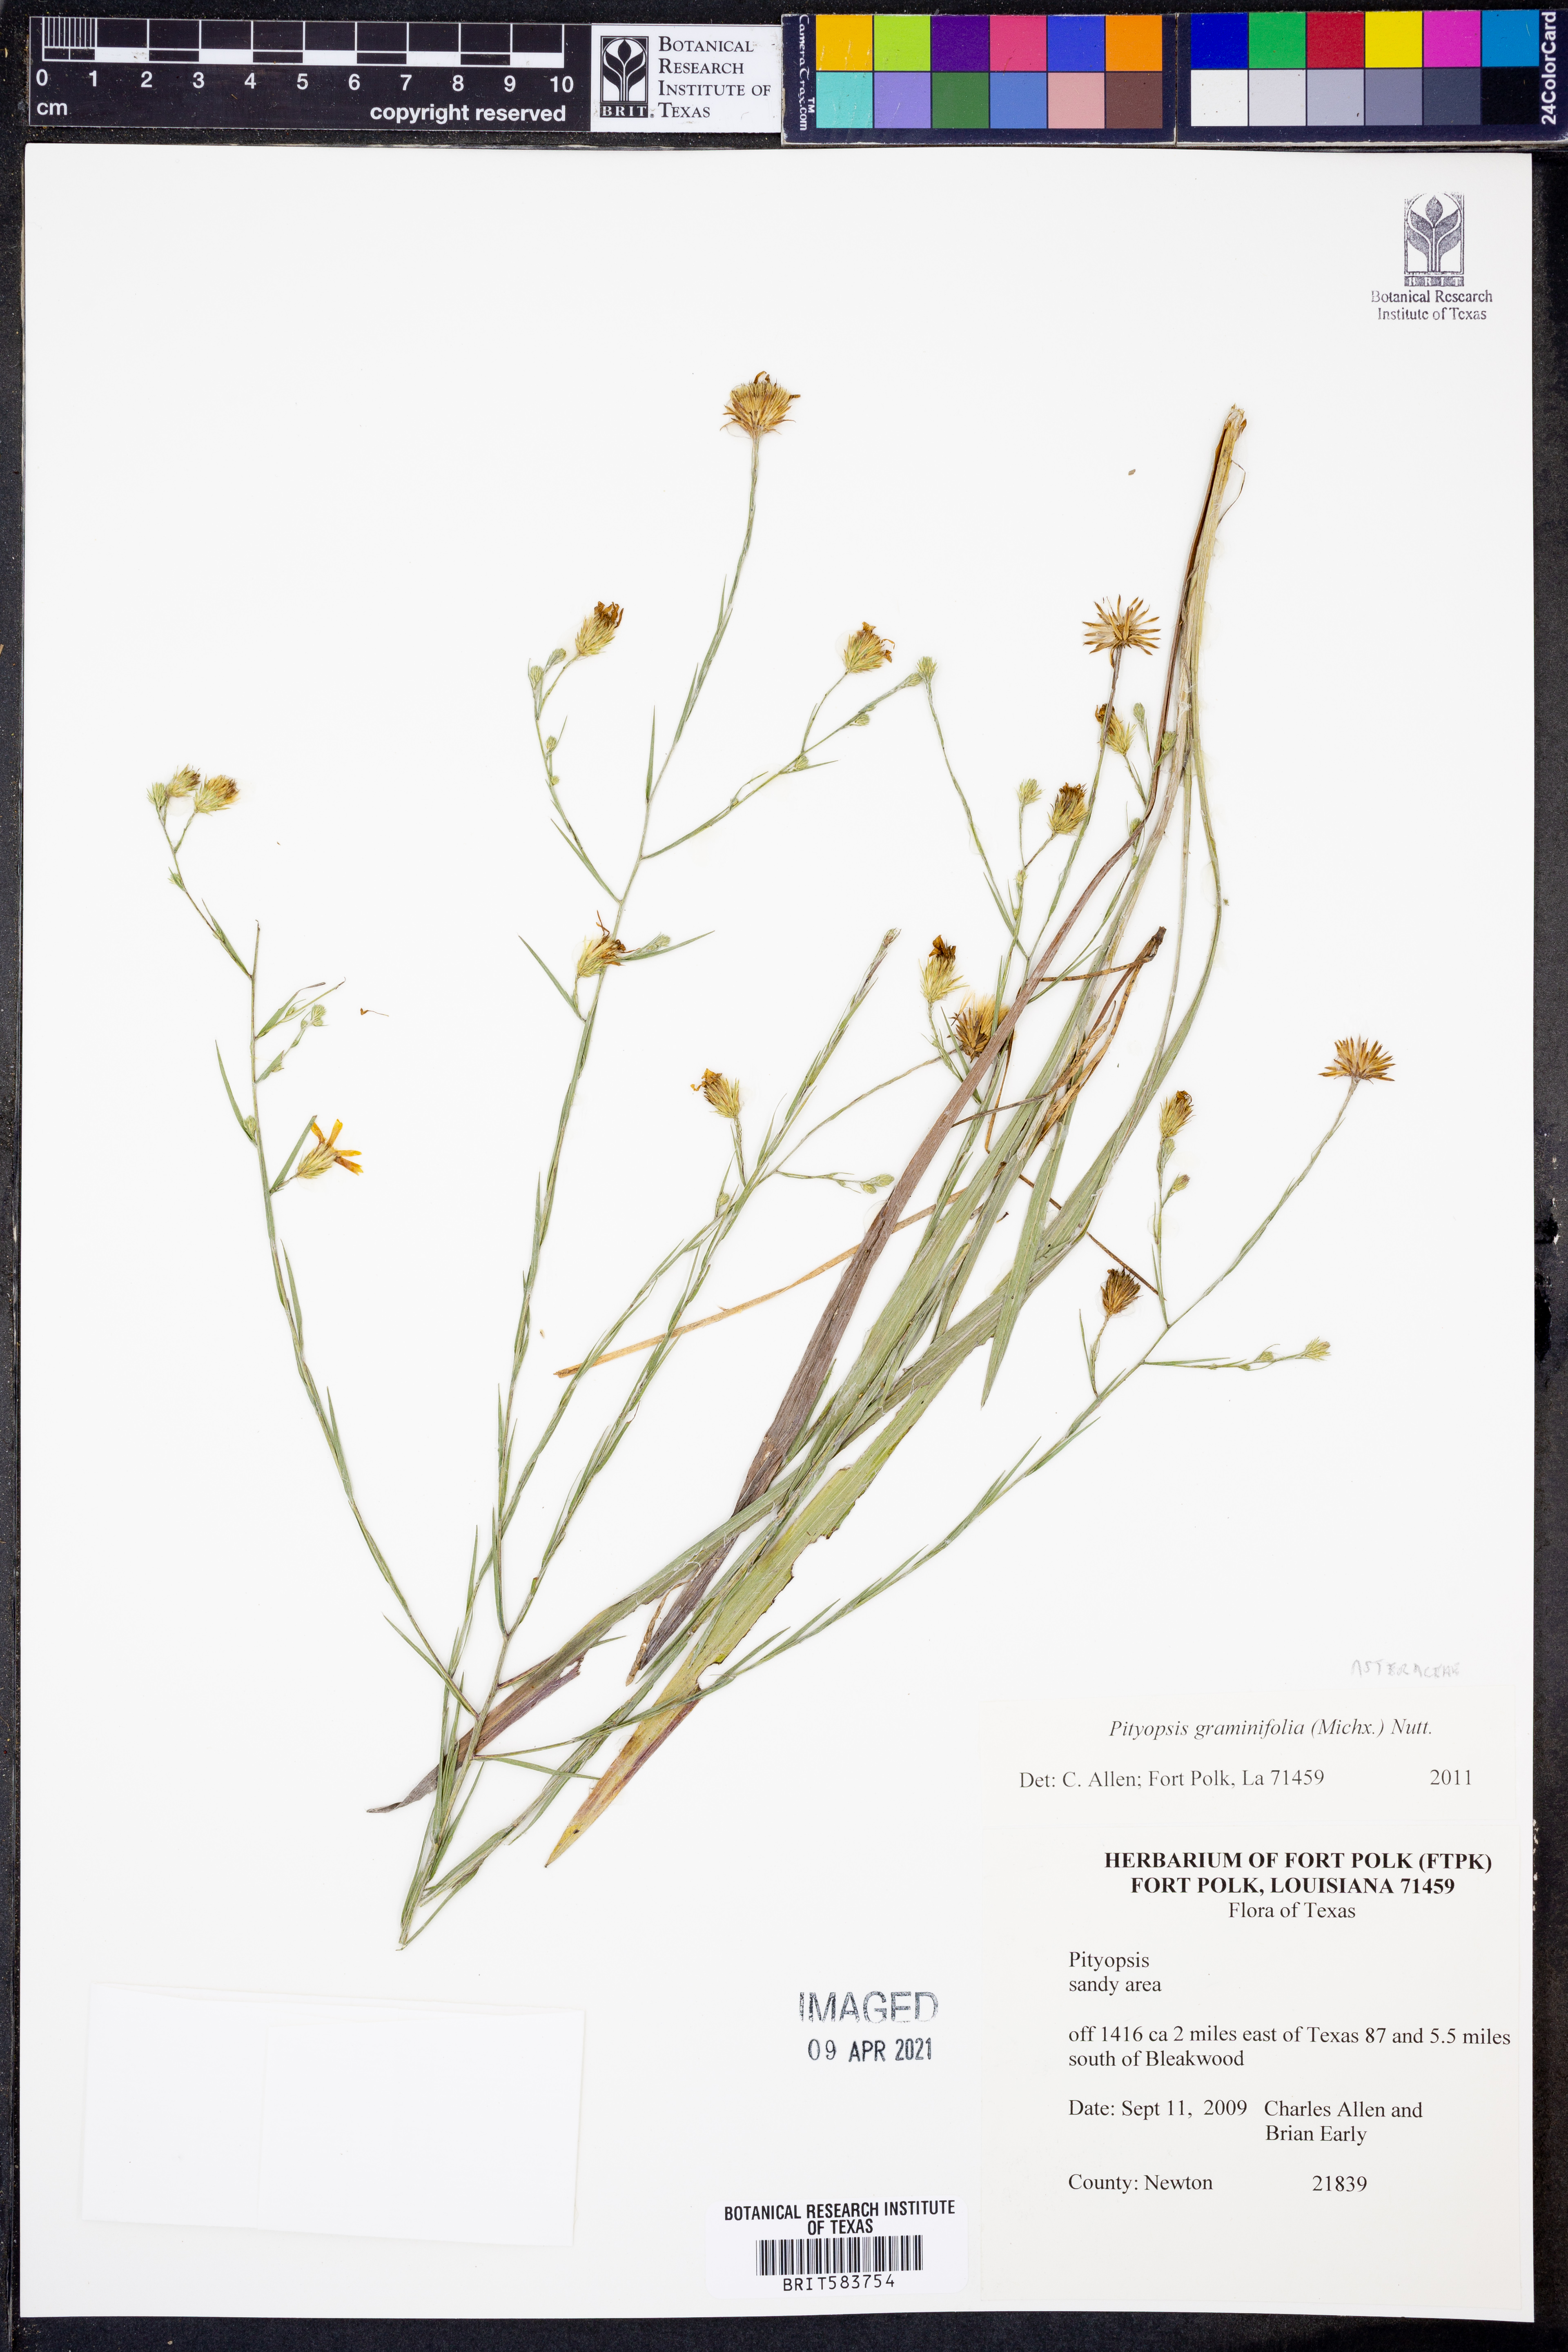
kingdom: Plantae
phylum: Tracheophyta
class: Magnoliopsida
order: Asterales
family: Asteraceae
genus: Pityopsis
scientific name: Pityopsis graminifolia
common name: Grass-leaf golden-aster
